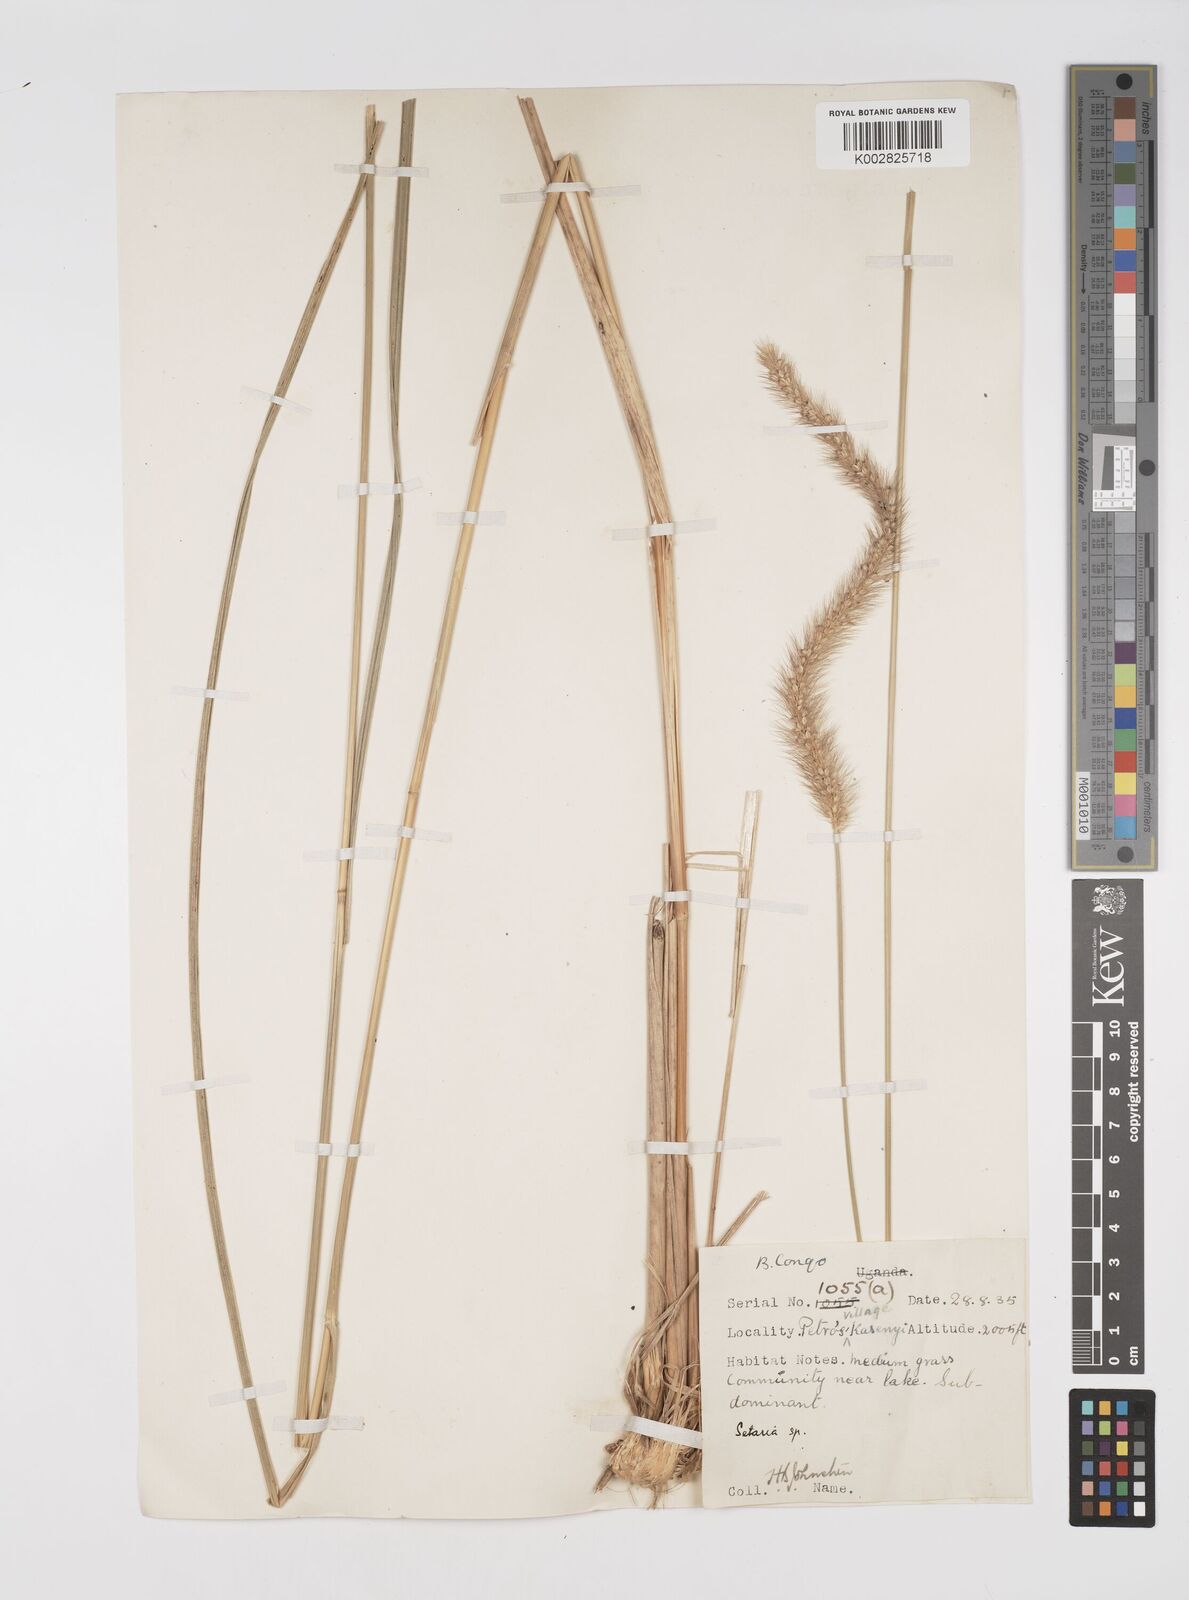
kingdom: Plantae
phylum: Tracheophyta
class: Liliopsida
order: Poales
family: Poaceae
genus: Setaria
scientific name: Setaria incrassata
